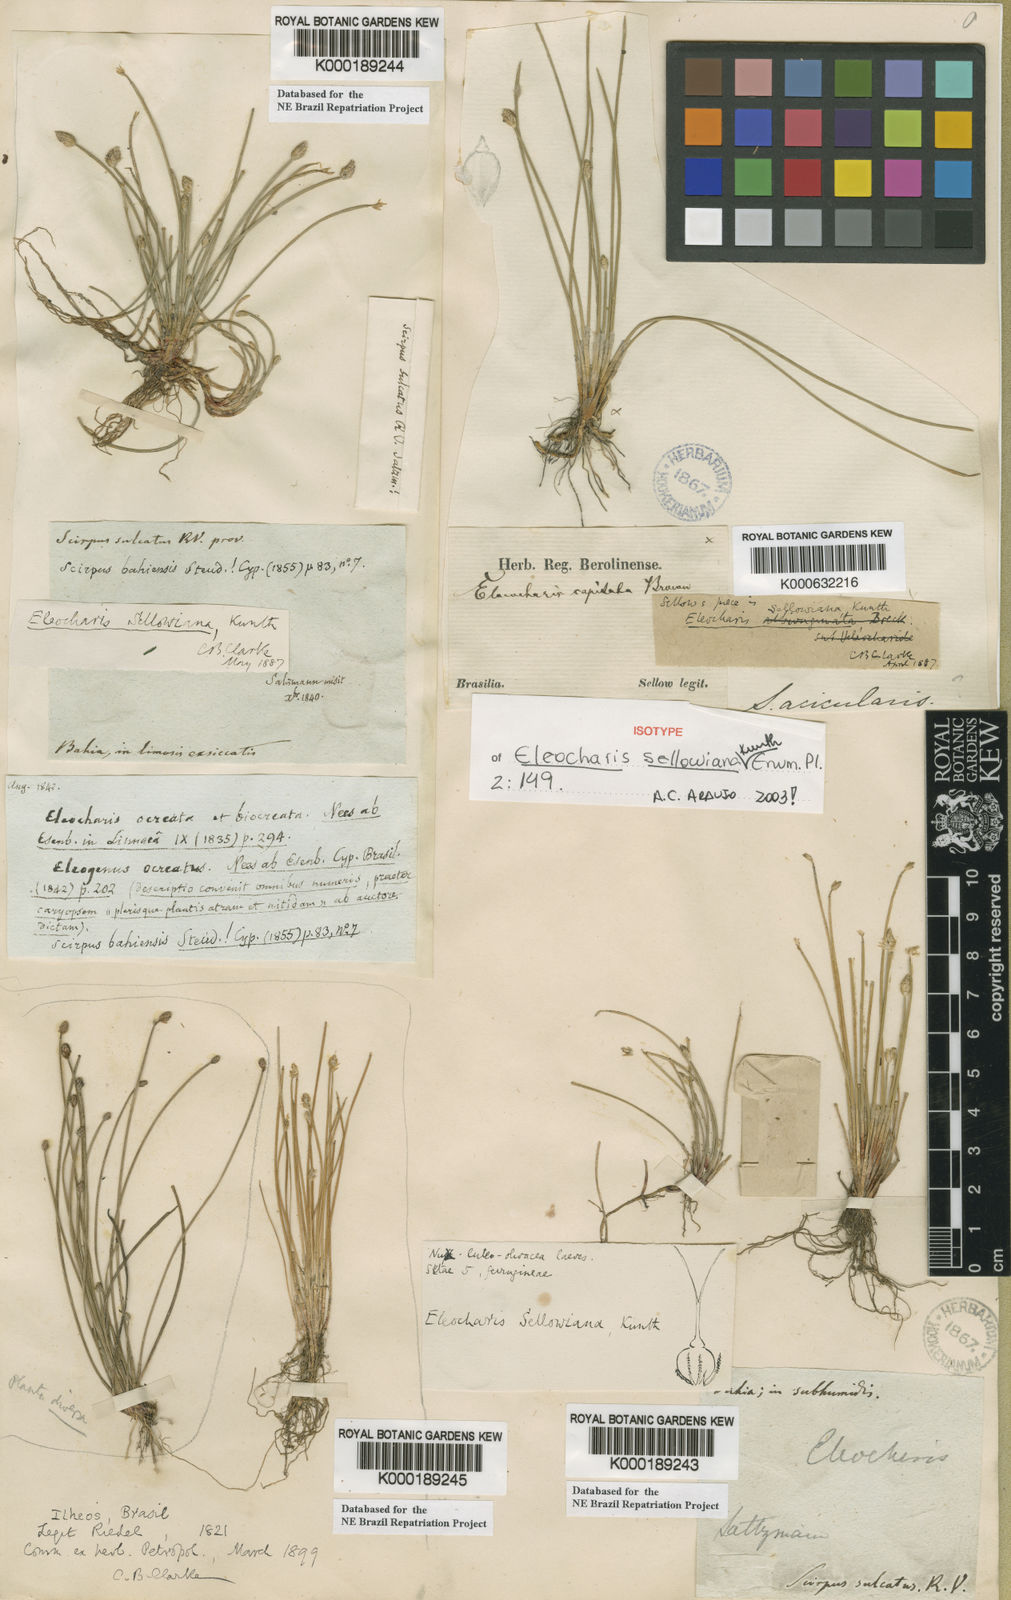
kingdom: Plantae
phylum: Tracheophyta
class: Liliopsida
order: Poales
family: Cyperaceae
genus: Eleocharis
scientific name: Eleocharis sellowiana
